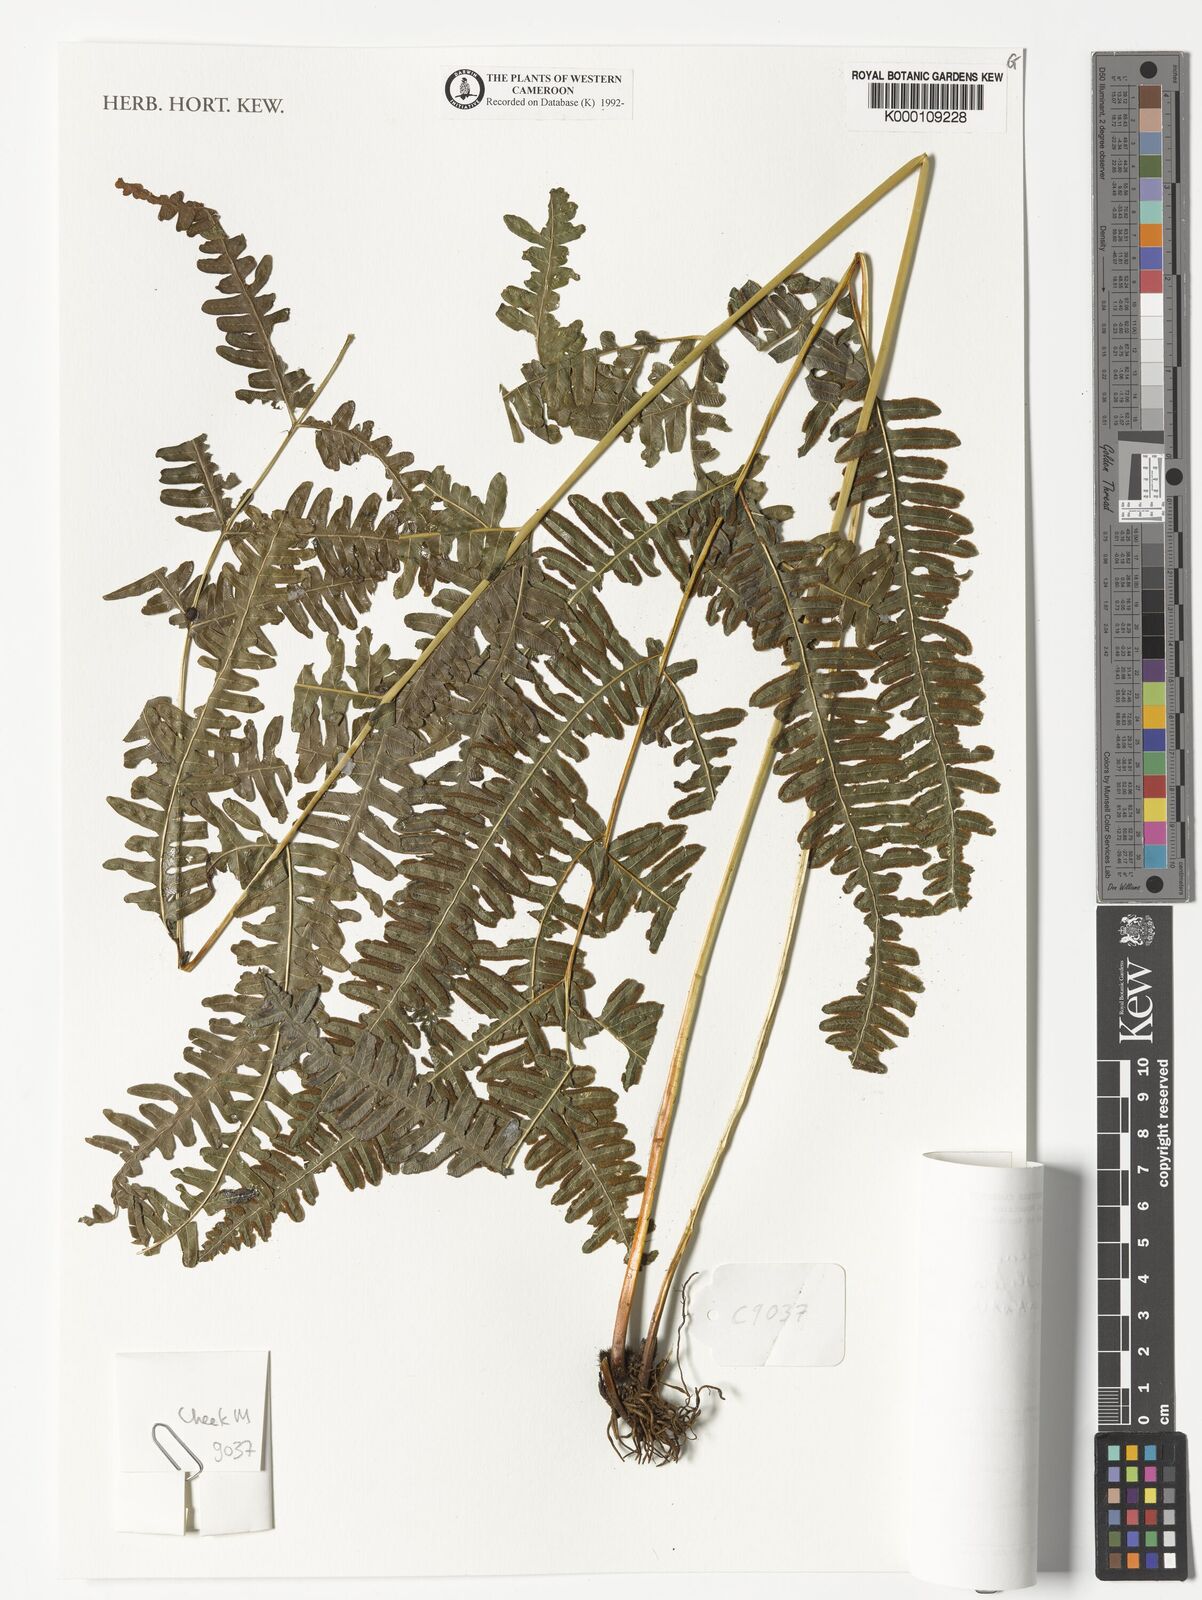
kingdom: Plantae
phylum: Tracheophyta
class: Polypodiopsida
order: Polypodiales
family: Pteridaceae
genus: Pteris
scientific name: Pteris preussii
